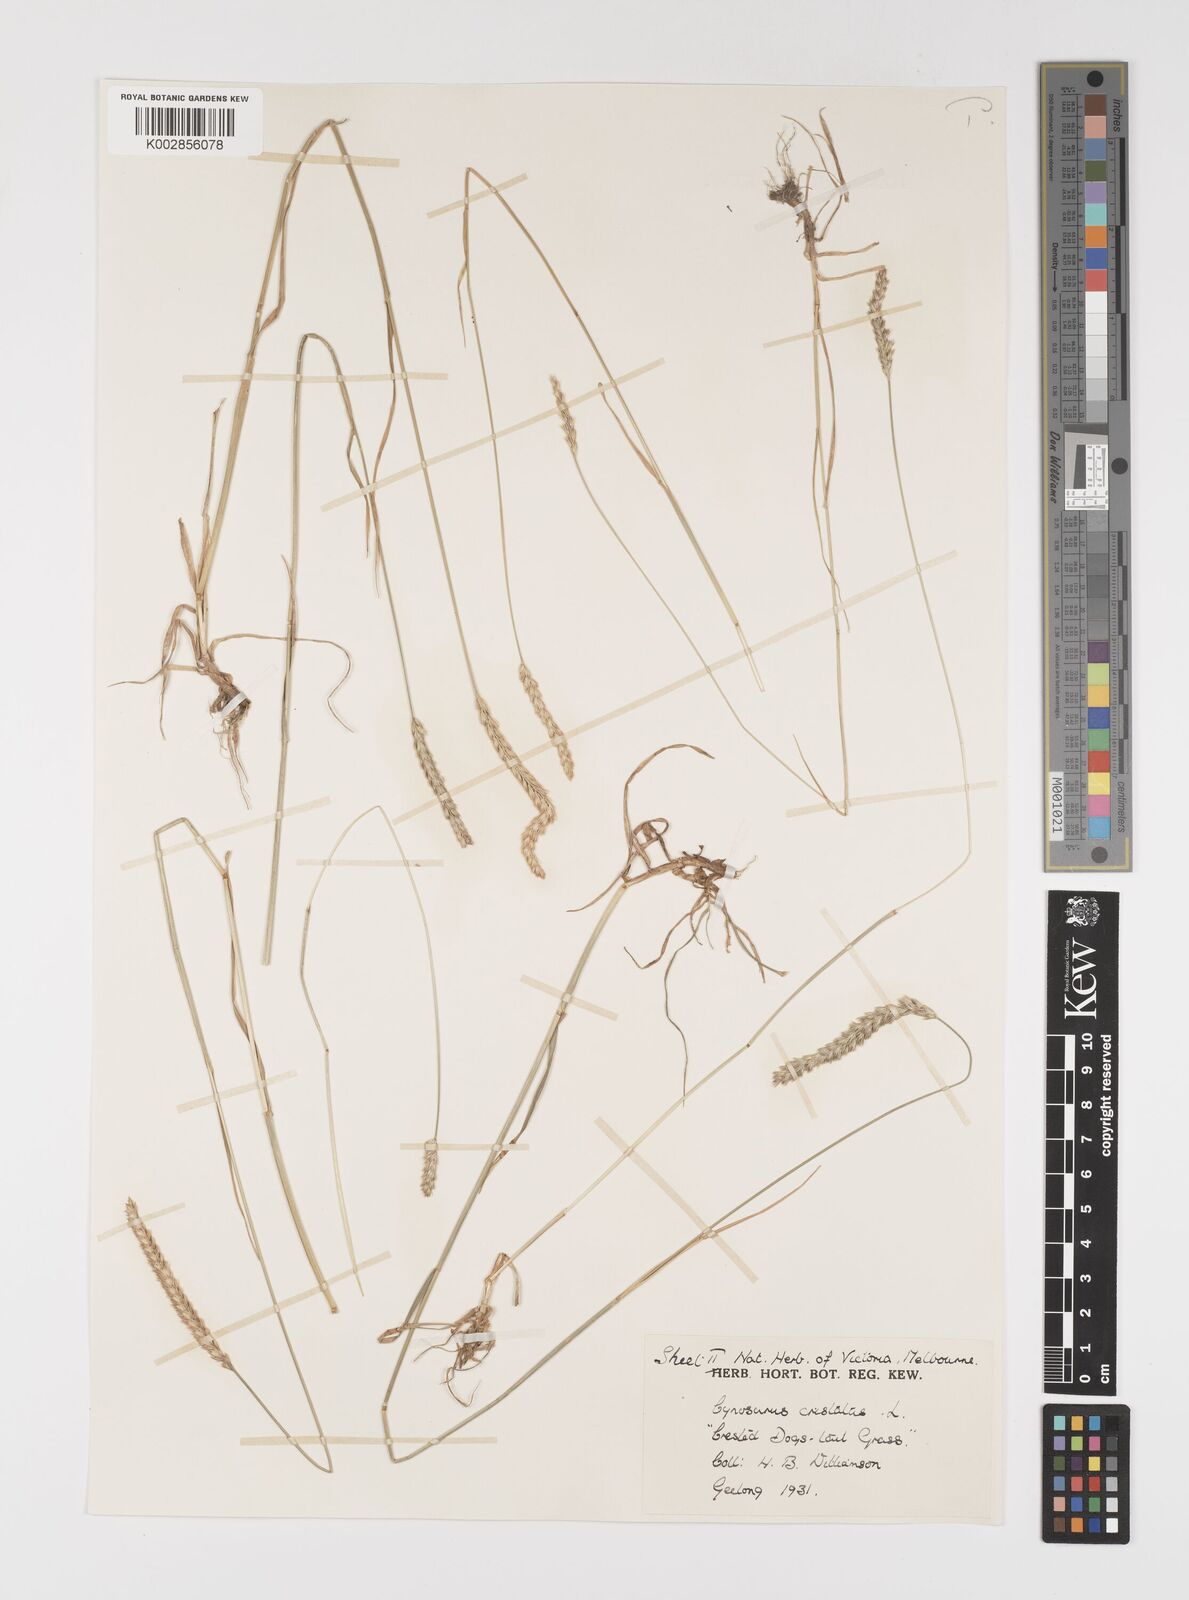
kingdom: Plantae
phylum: Tracheophyta
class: Liliopsida
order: Poales
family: Poaceae
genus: Cynosurus
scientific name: Cynosurus cristatus
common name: Crested dog's-tail
